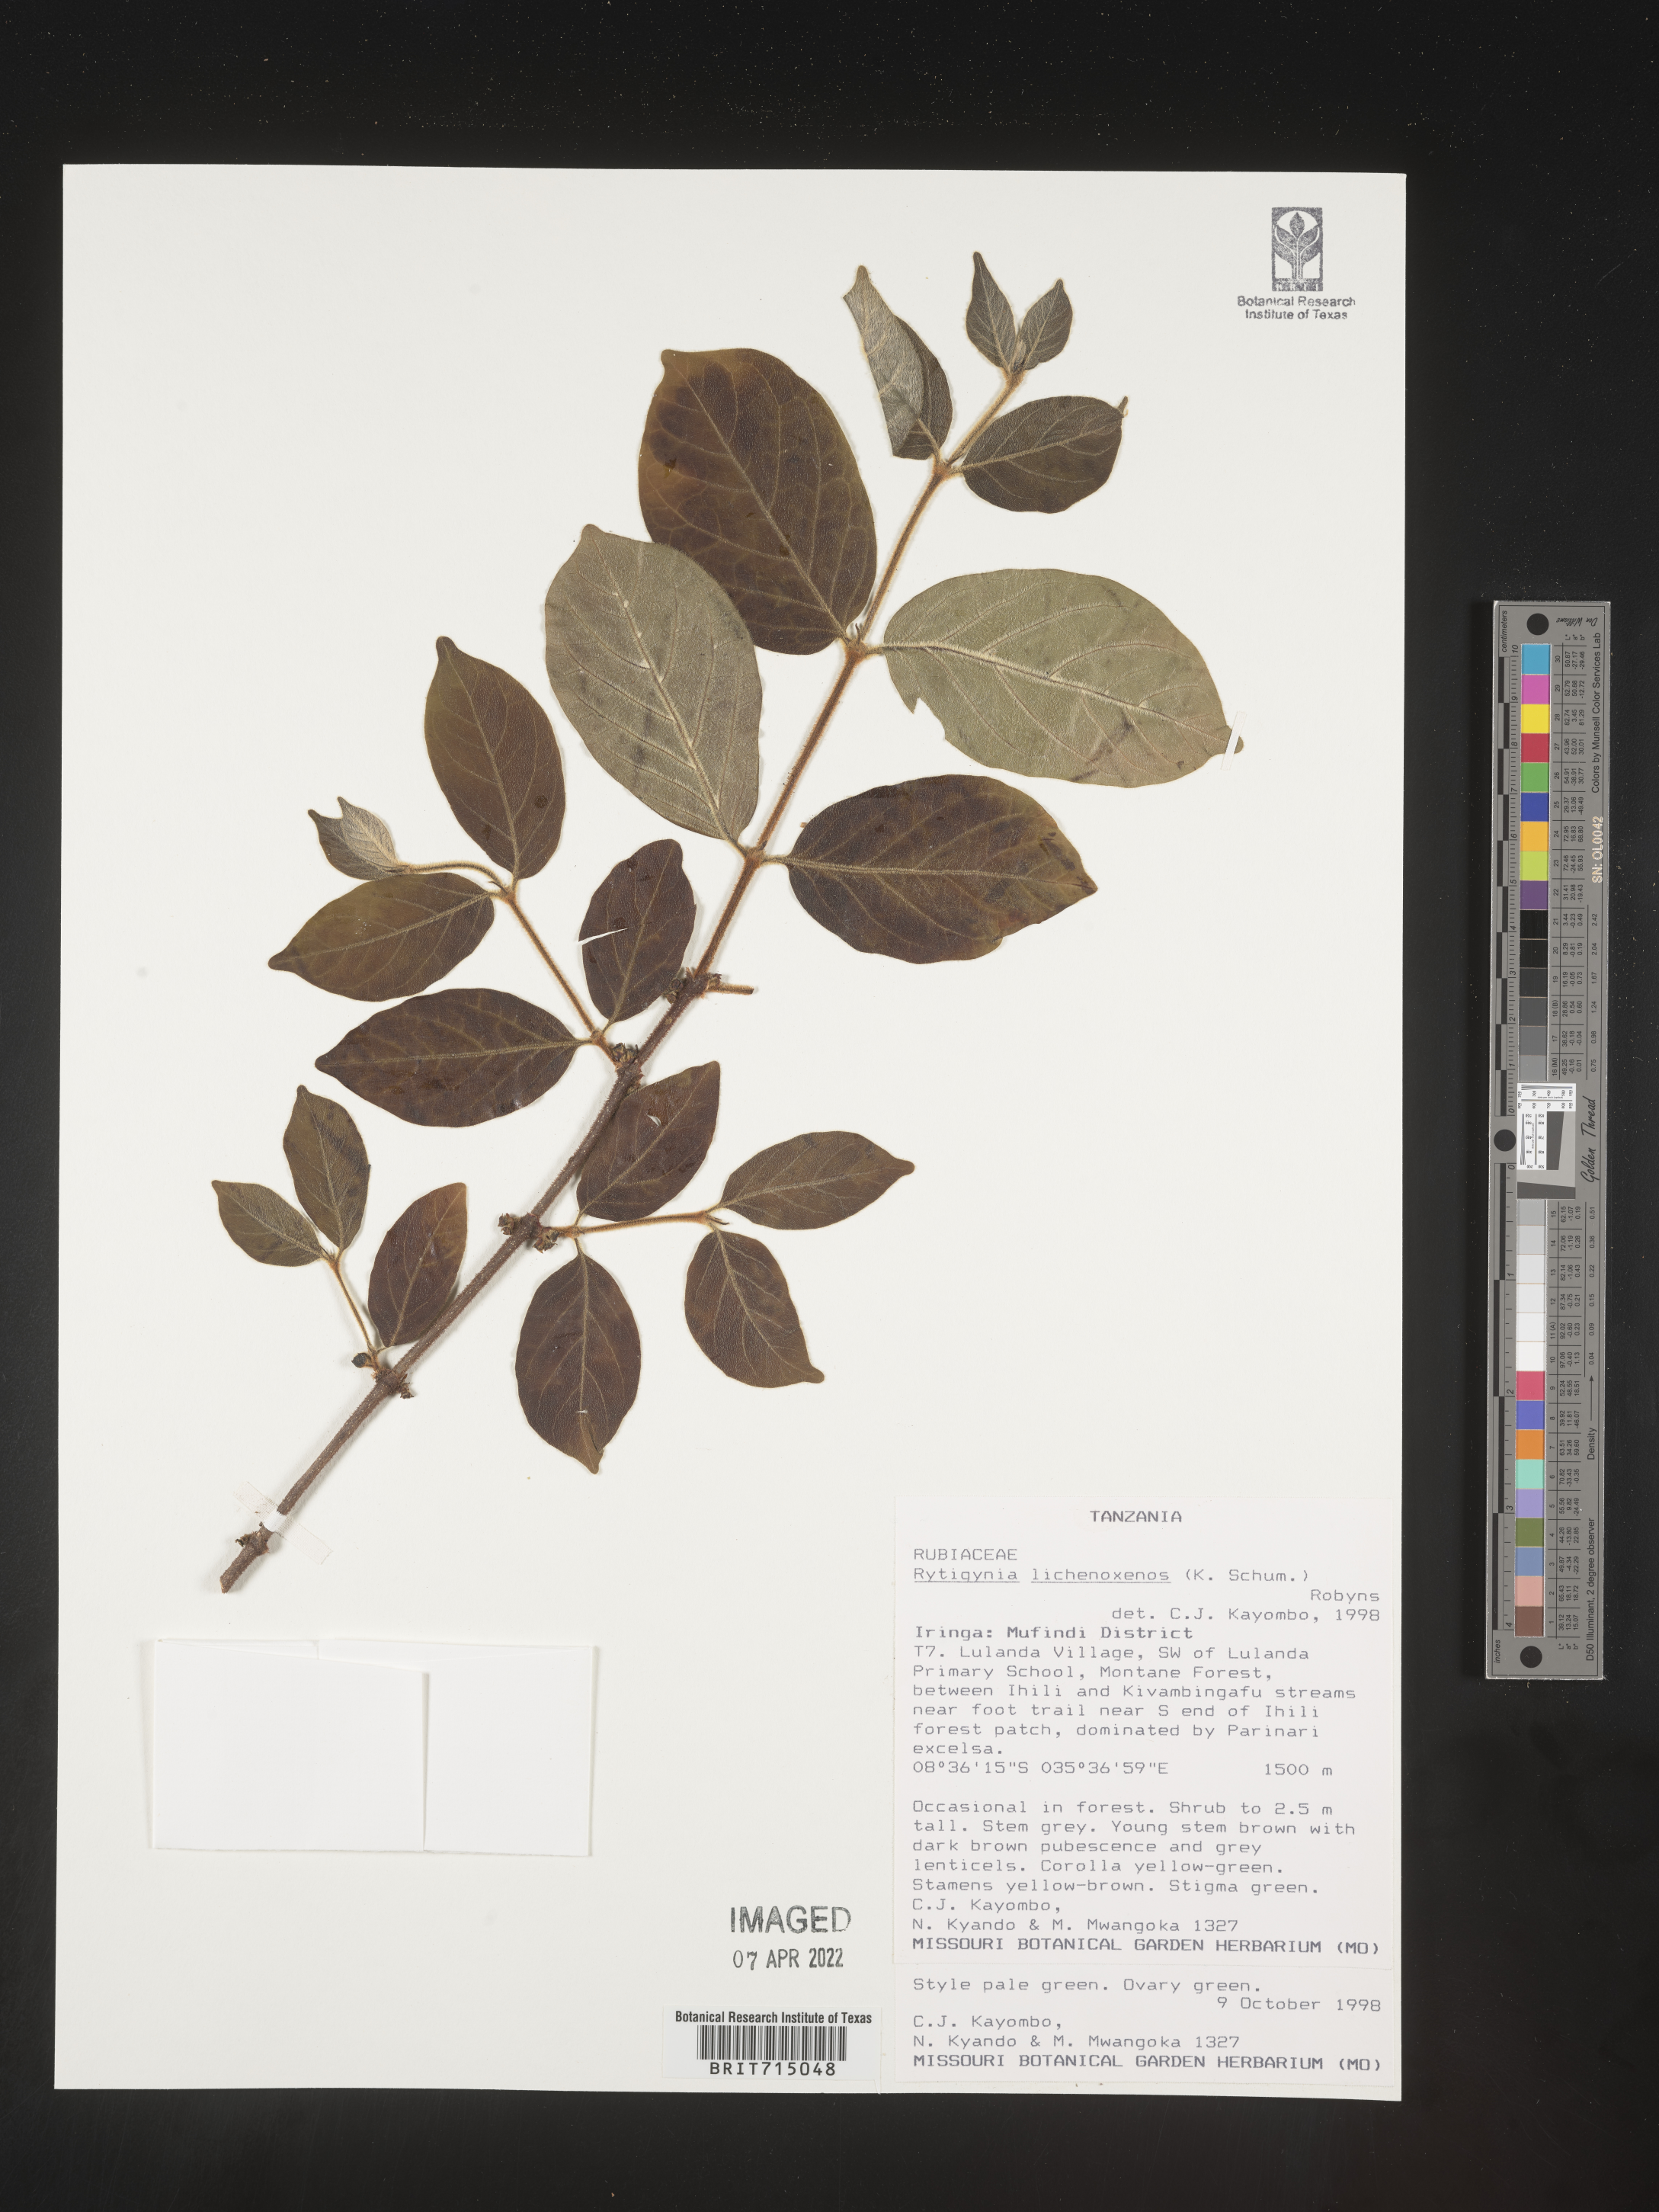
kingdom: Plantae
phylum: Tracheophyta
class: Magnoliopsida
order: Gentianales
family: Rubiaceae
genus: Rytigynia
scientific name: Rytigynia
